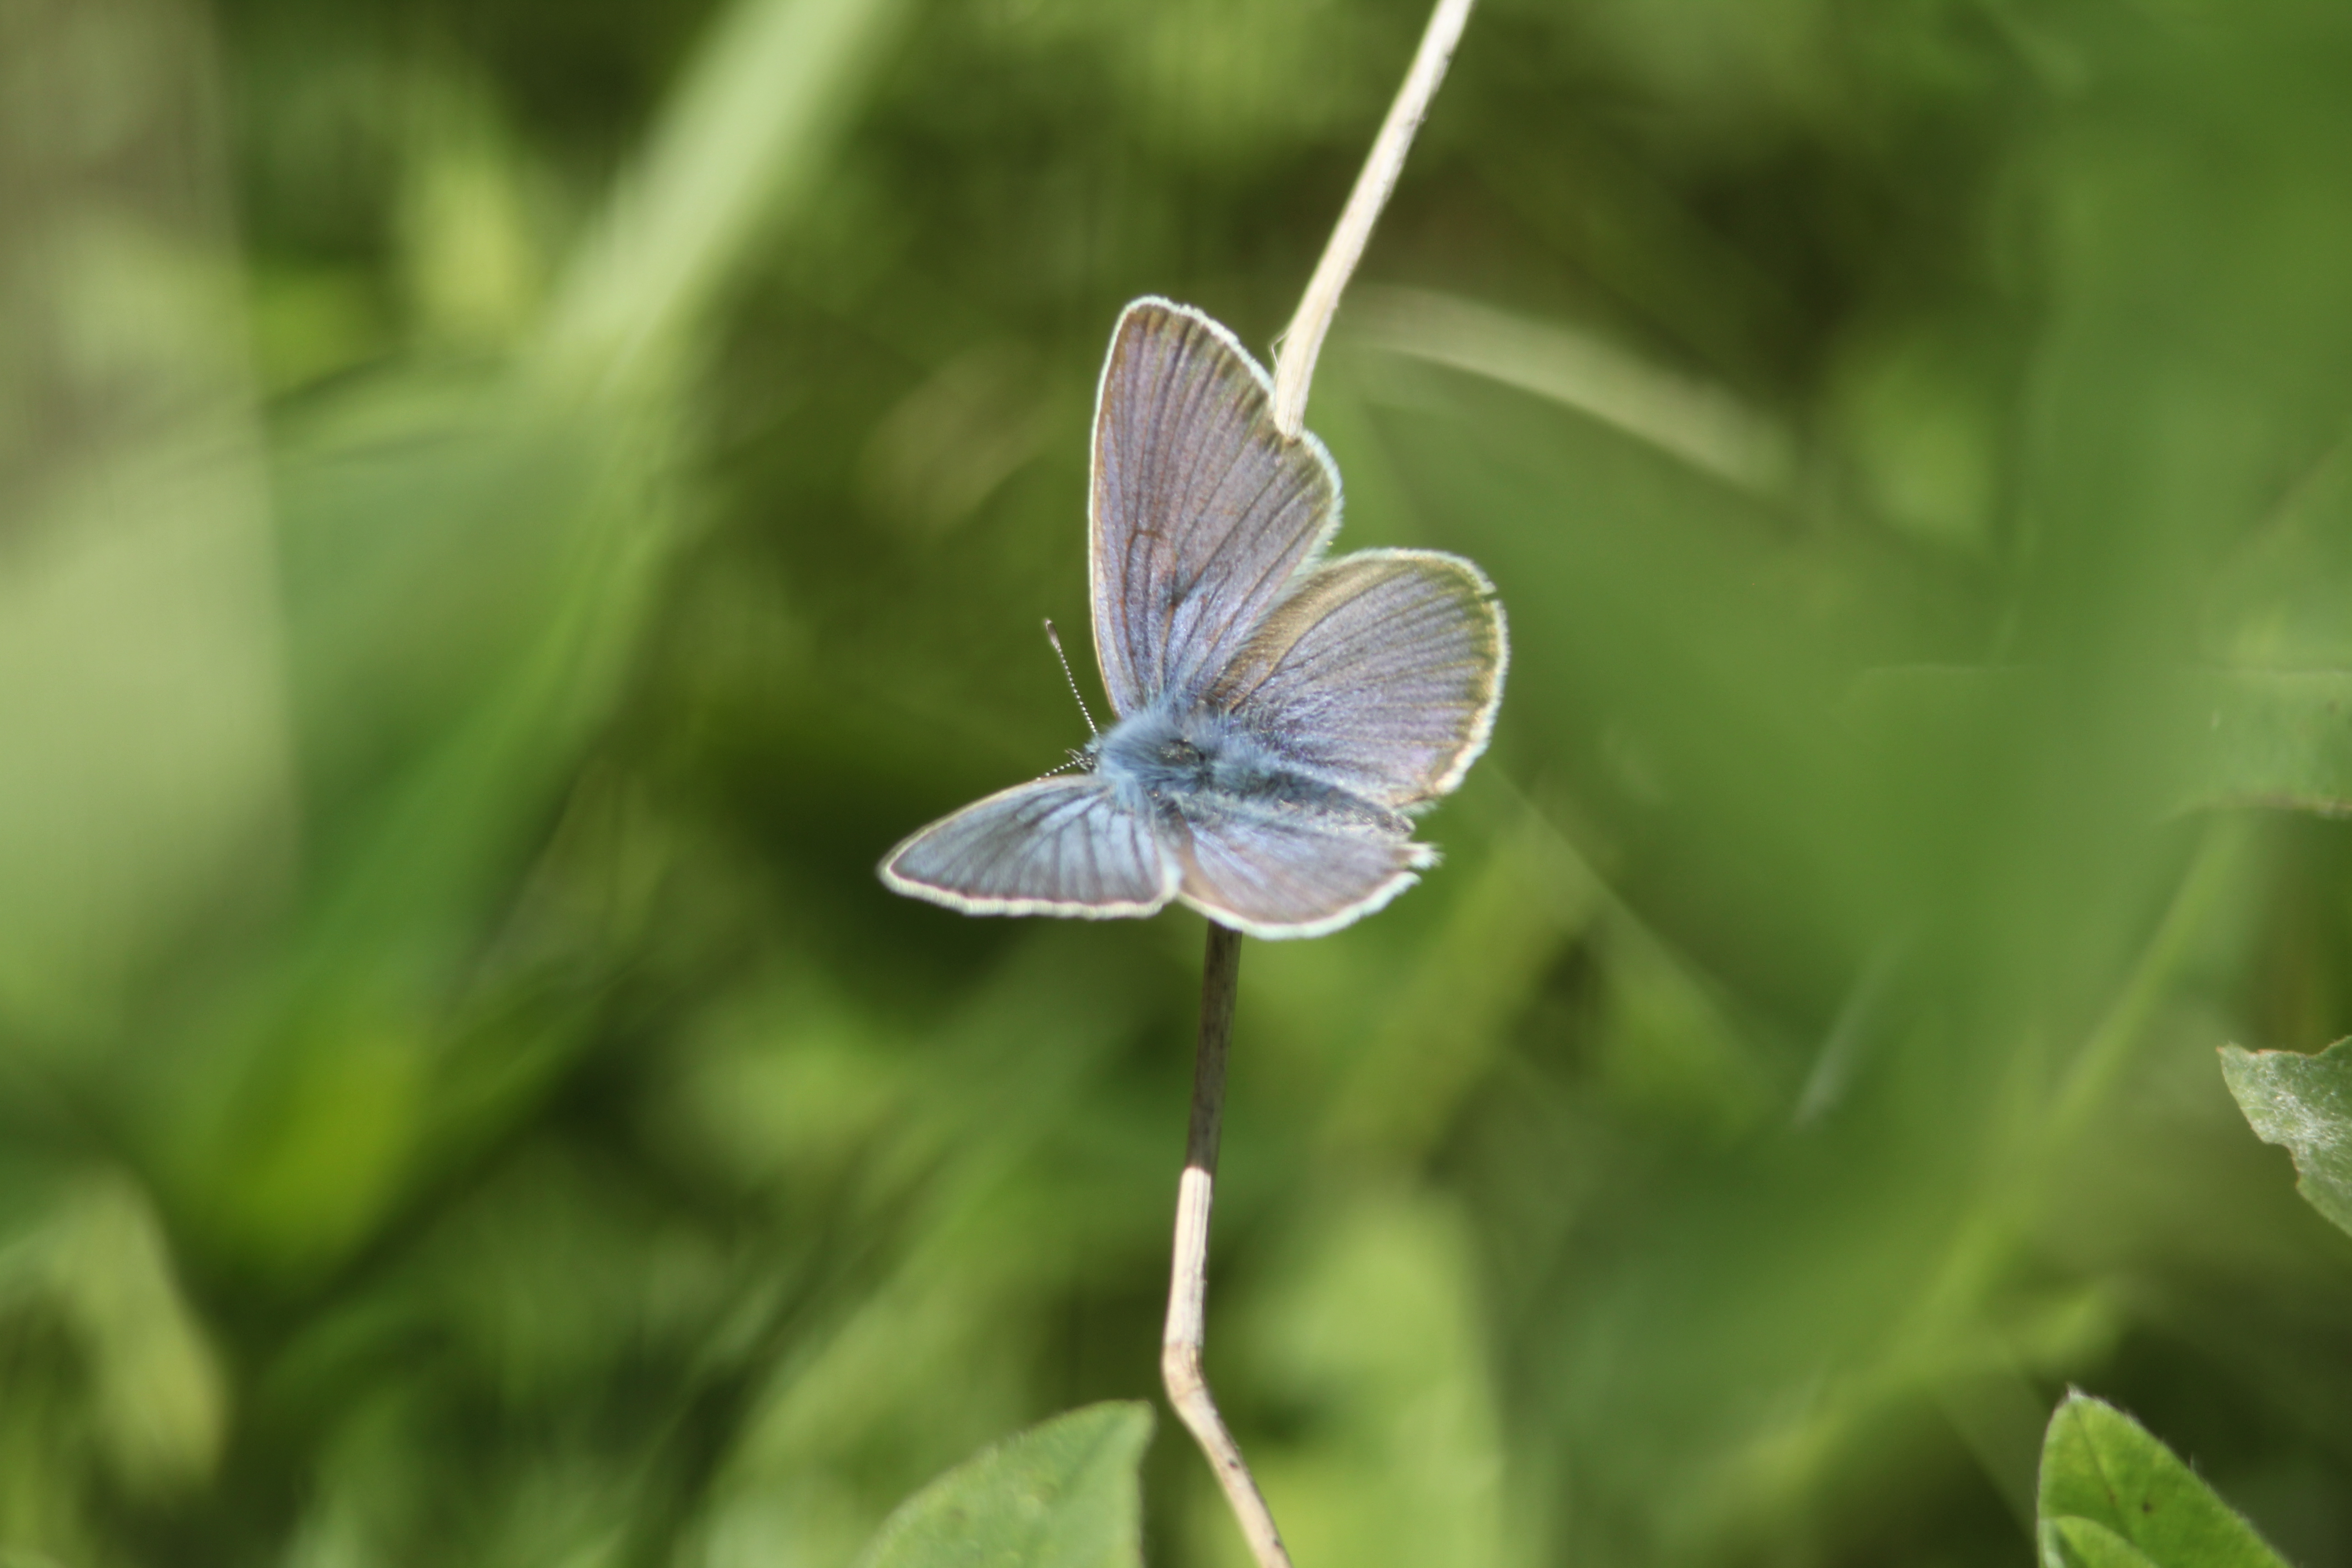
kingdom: Animalia
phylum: Arthropoda
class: Insecta
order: Lepidoptera
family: Lycaenidae
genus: Cyaniris
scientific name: Cyaniris semiargus
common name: Mazarine blue
